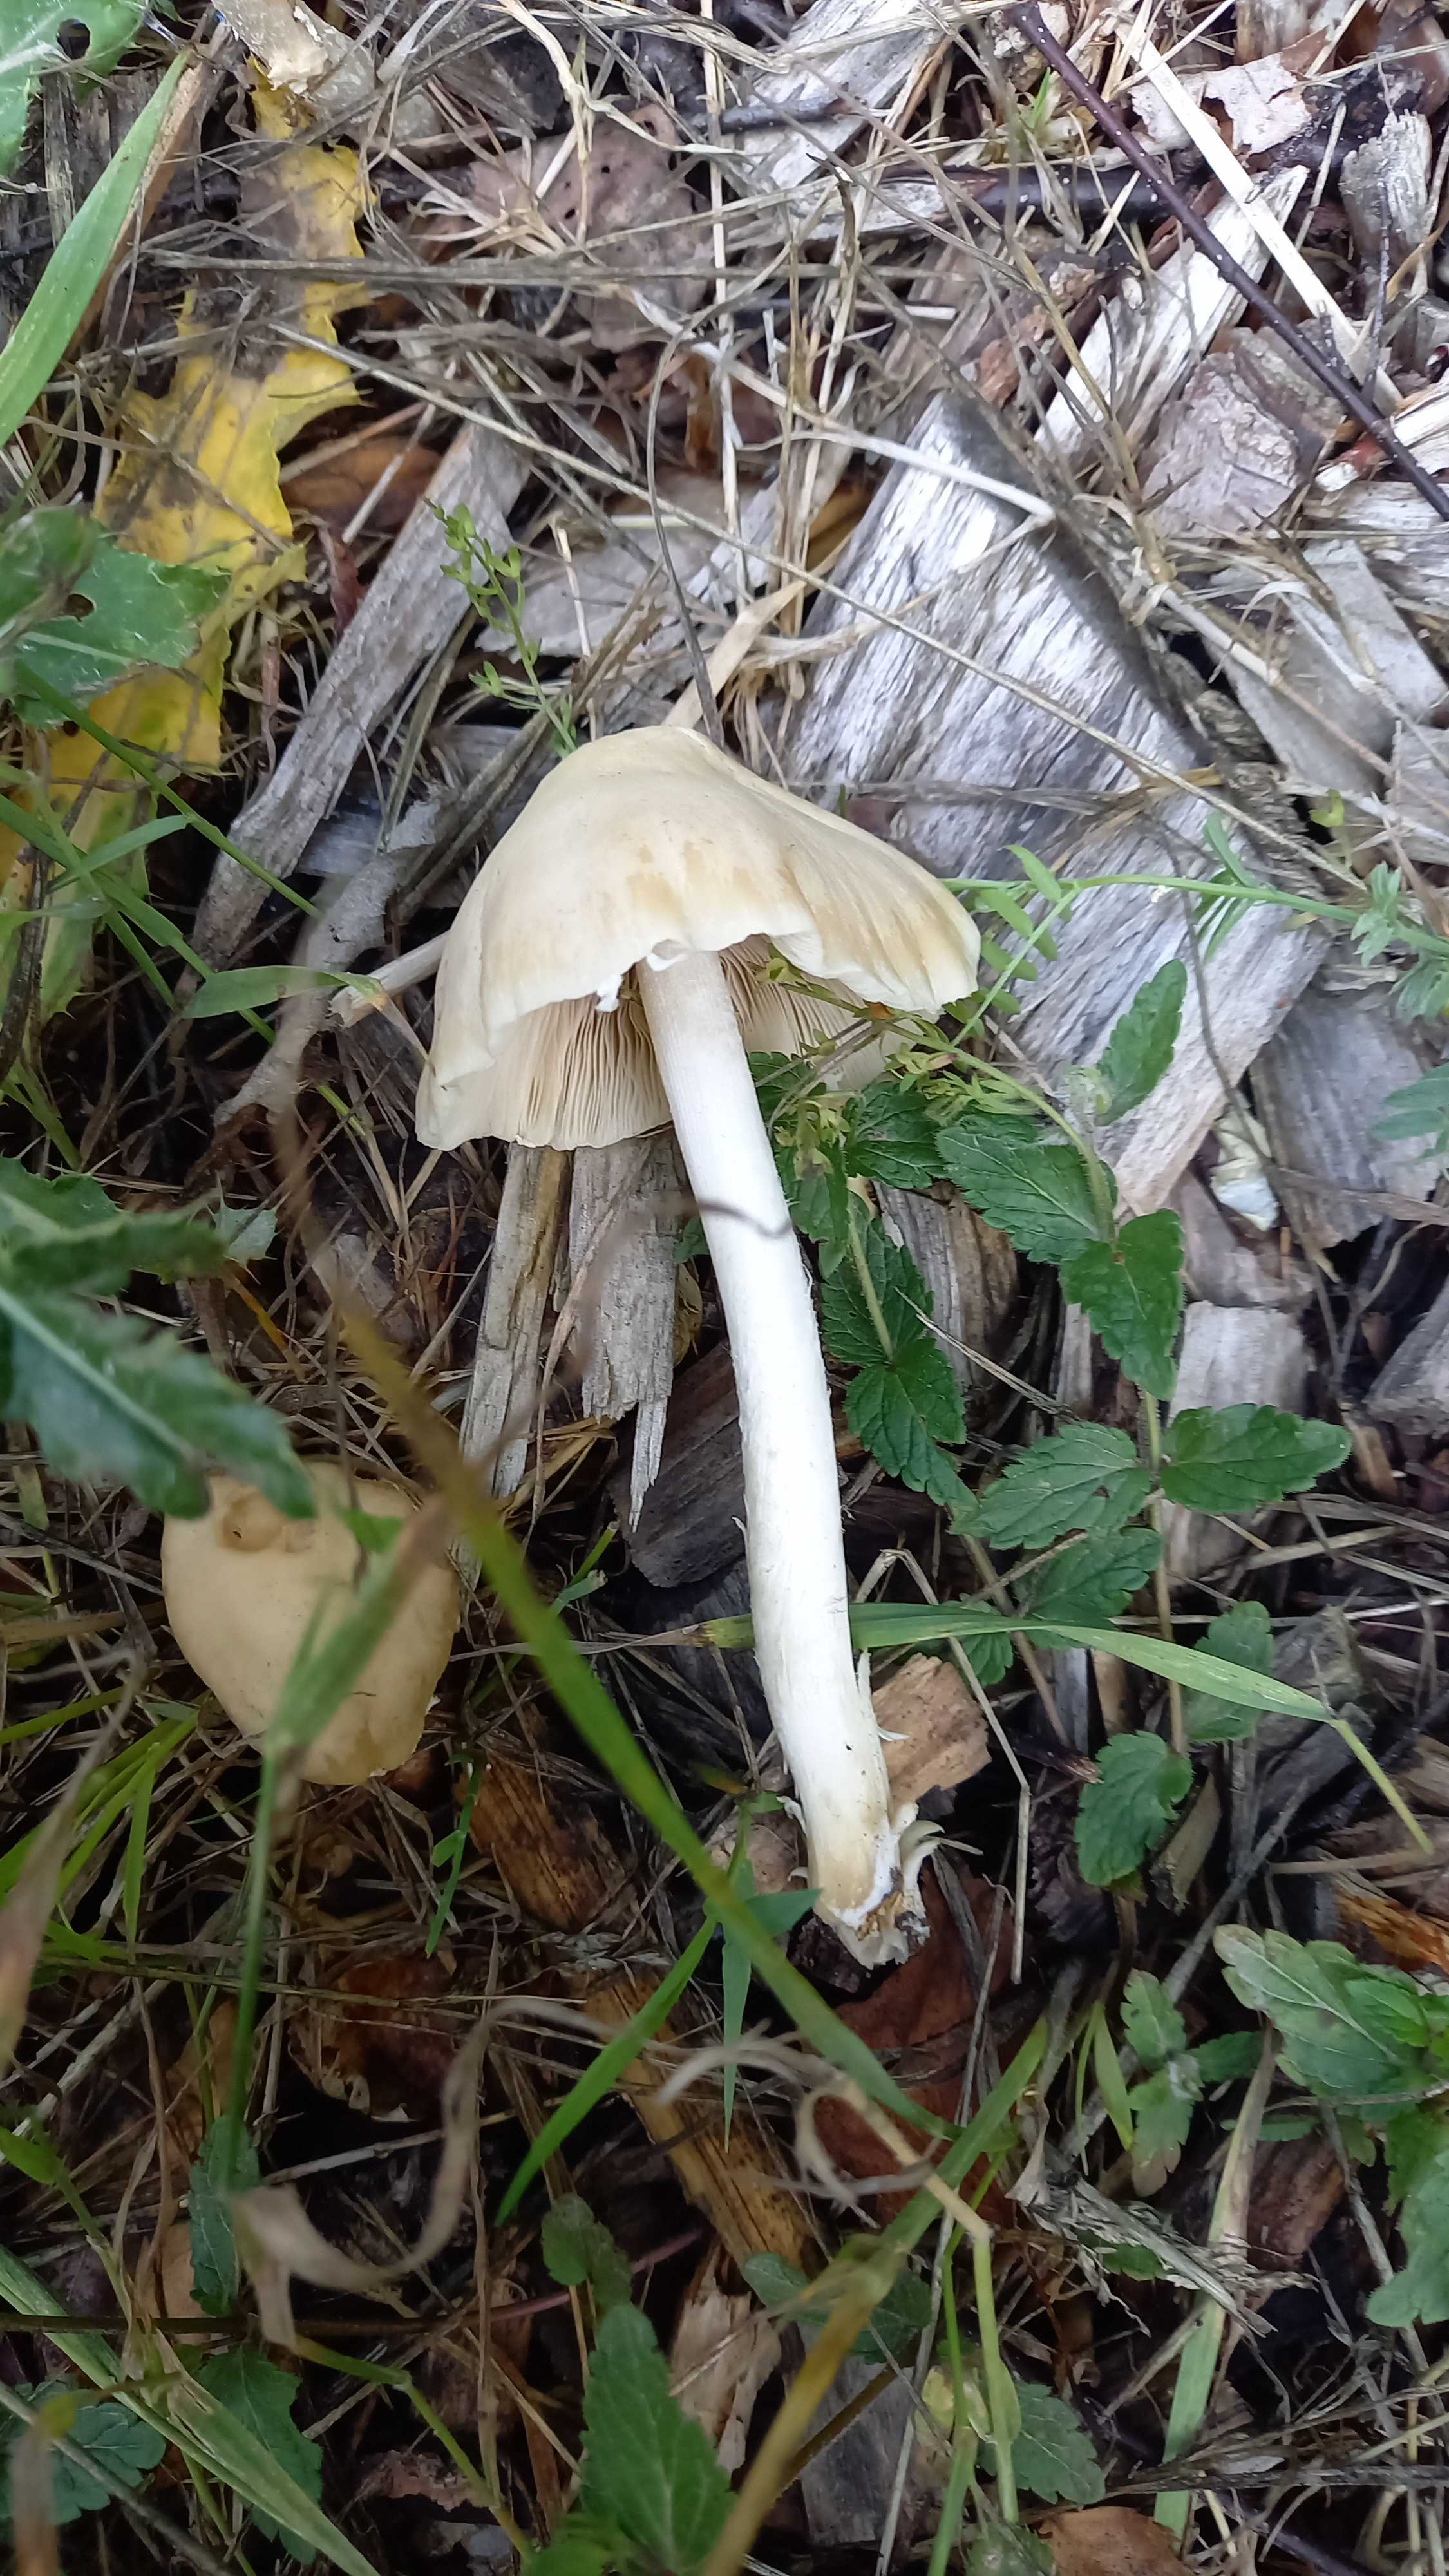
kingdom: Fungi
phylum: Basidiomycota
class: Agaricomycetes
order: Agaricales
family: Psathyrellaceae
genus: Candolleomyces
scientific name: Candolleomyces candolleanus
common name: Candolles mørkhat
